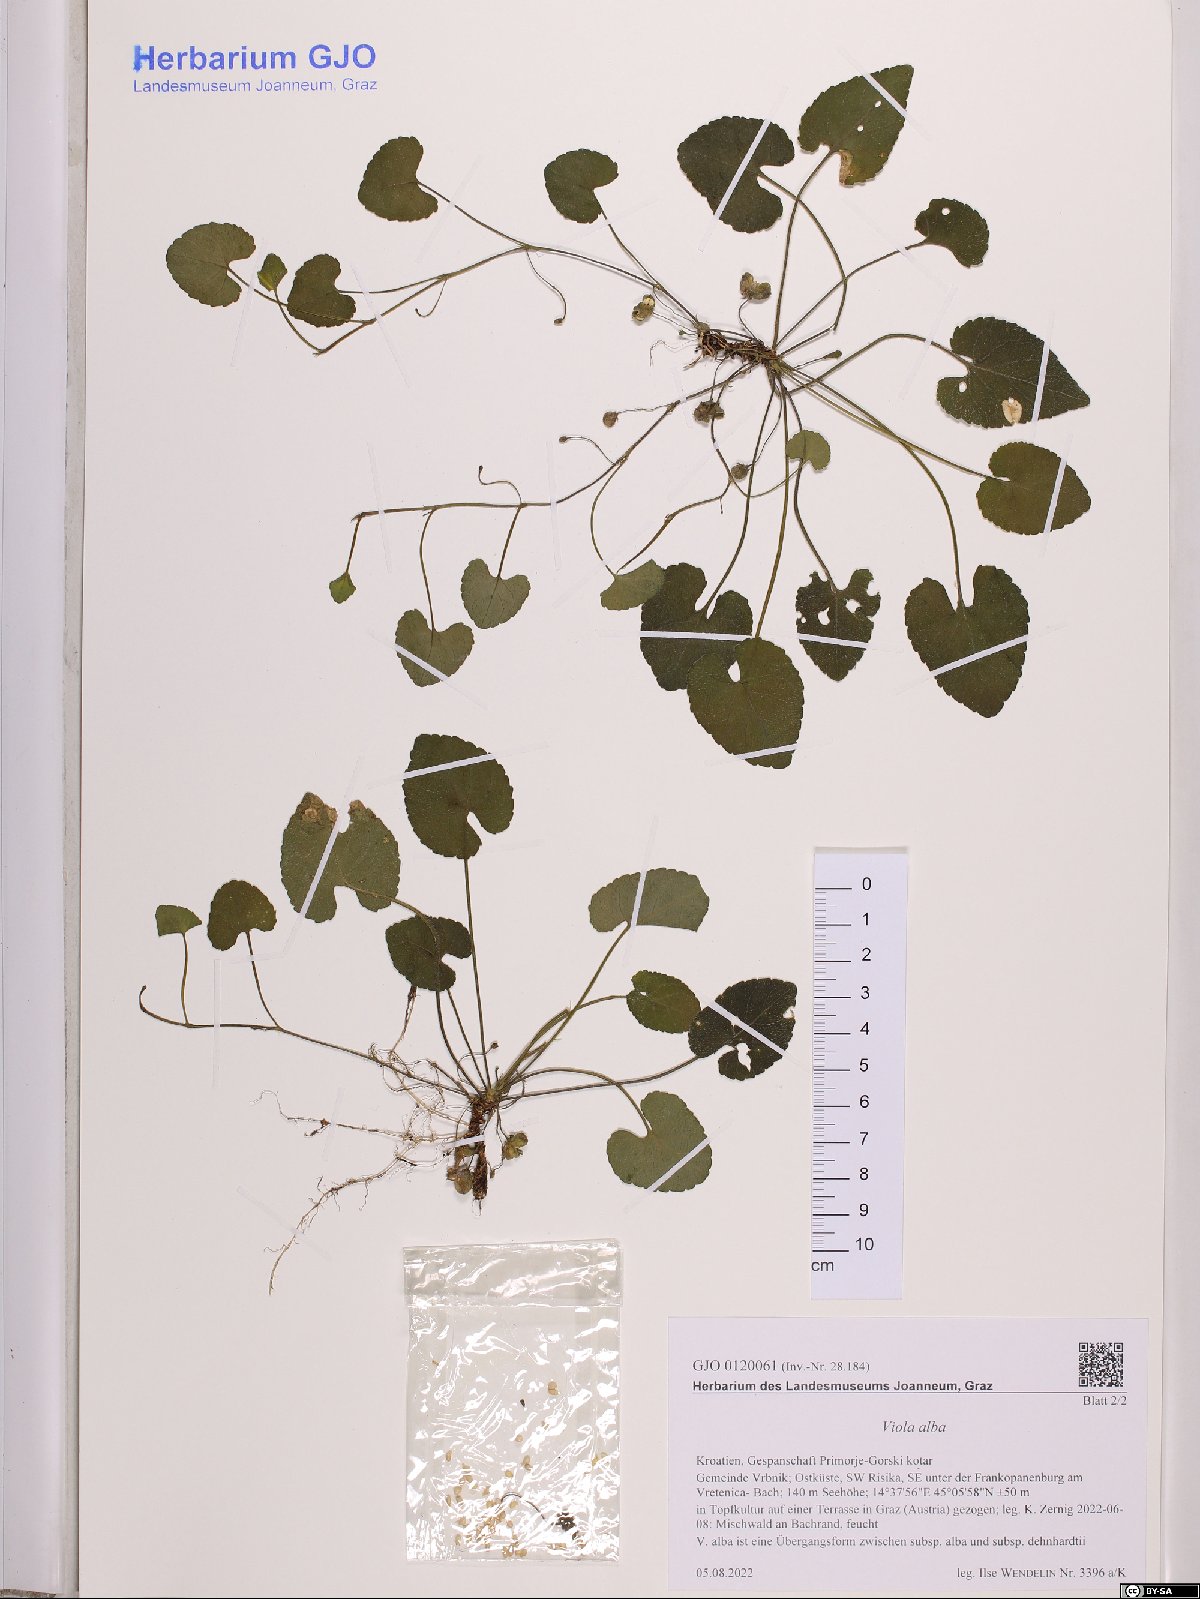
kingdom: Plantae
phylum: Tracheophyta
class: Magnoliopsida
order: Malpighiales
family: Violaceae
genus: Viola
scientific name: Viola alba
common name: White violet
